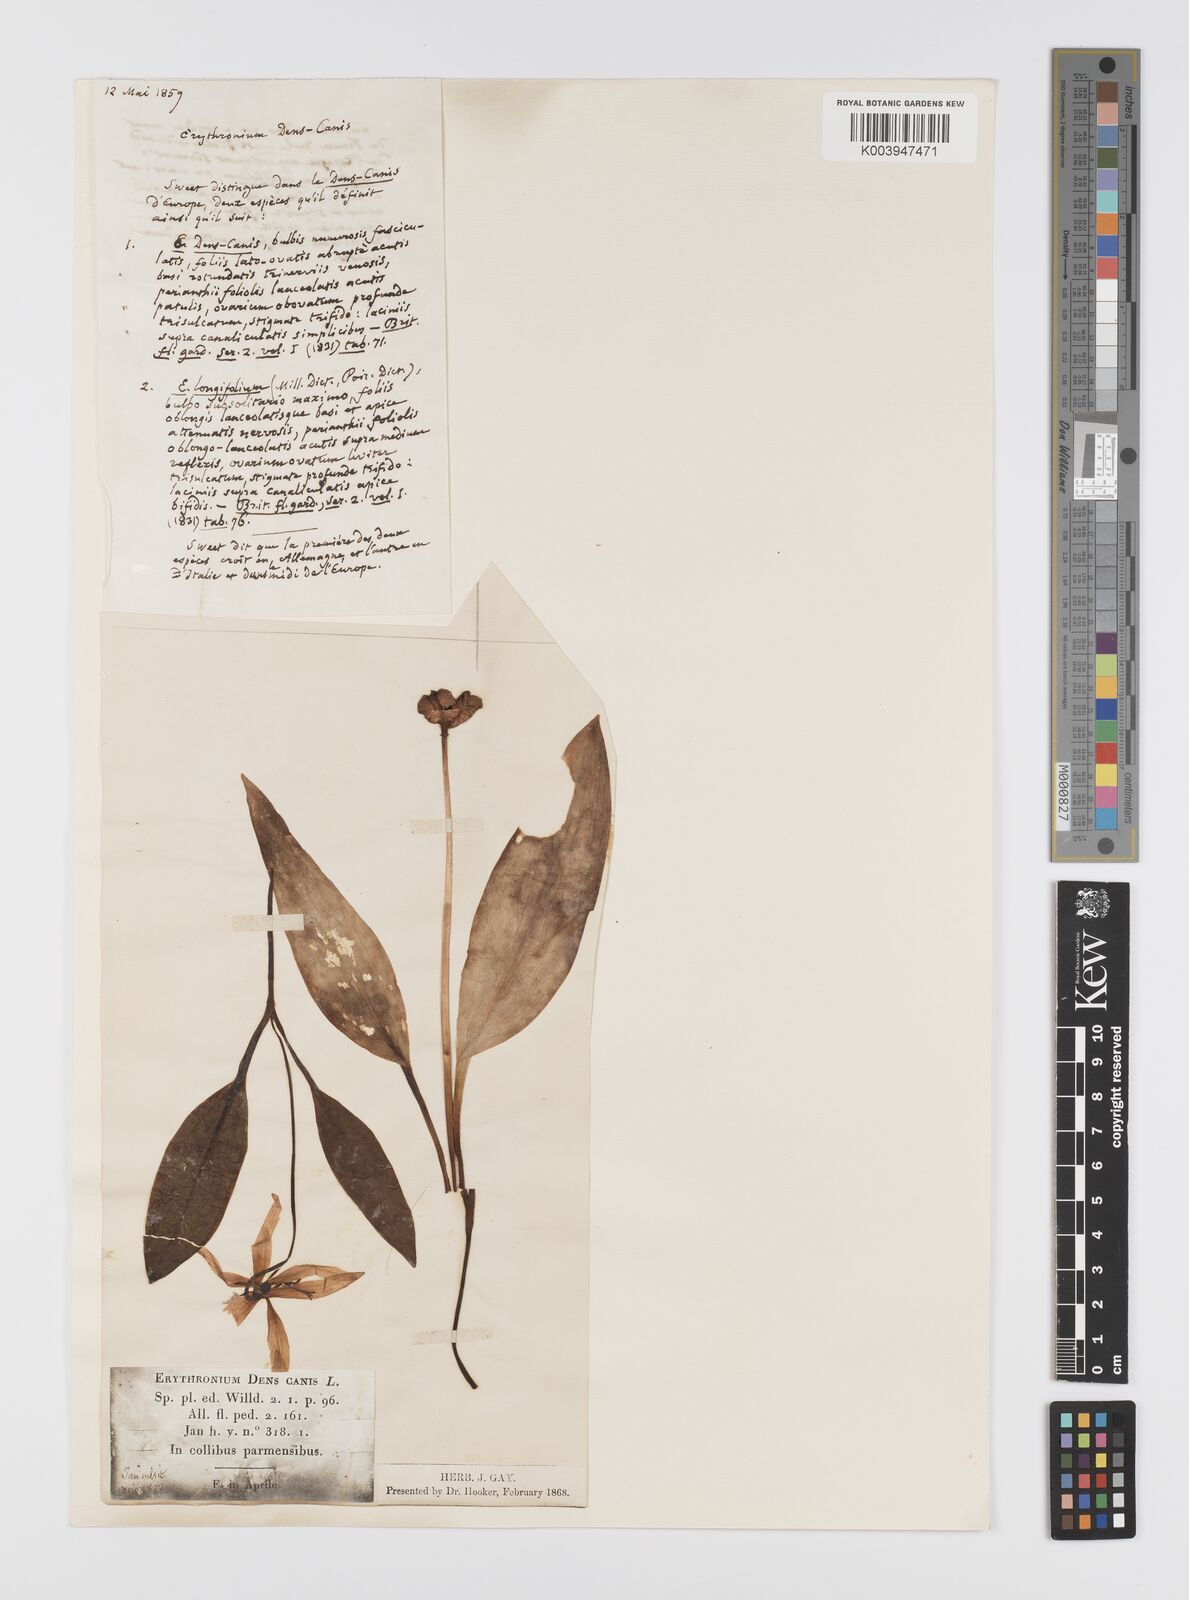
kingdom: Plantae
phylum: Tracheophyta
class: Liliopsida
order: Liliales
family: Liliaceae
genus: Erythronium
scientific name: Erythronium dens-canis
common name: Dog's-tooth-violet
